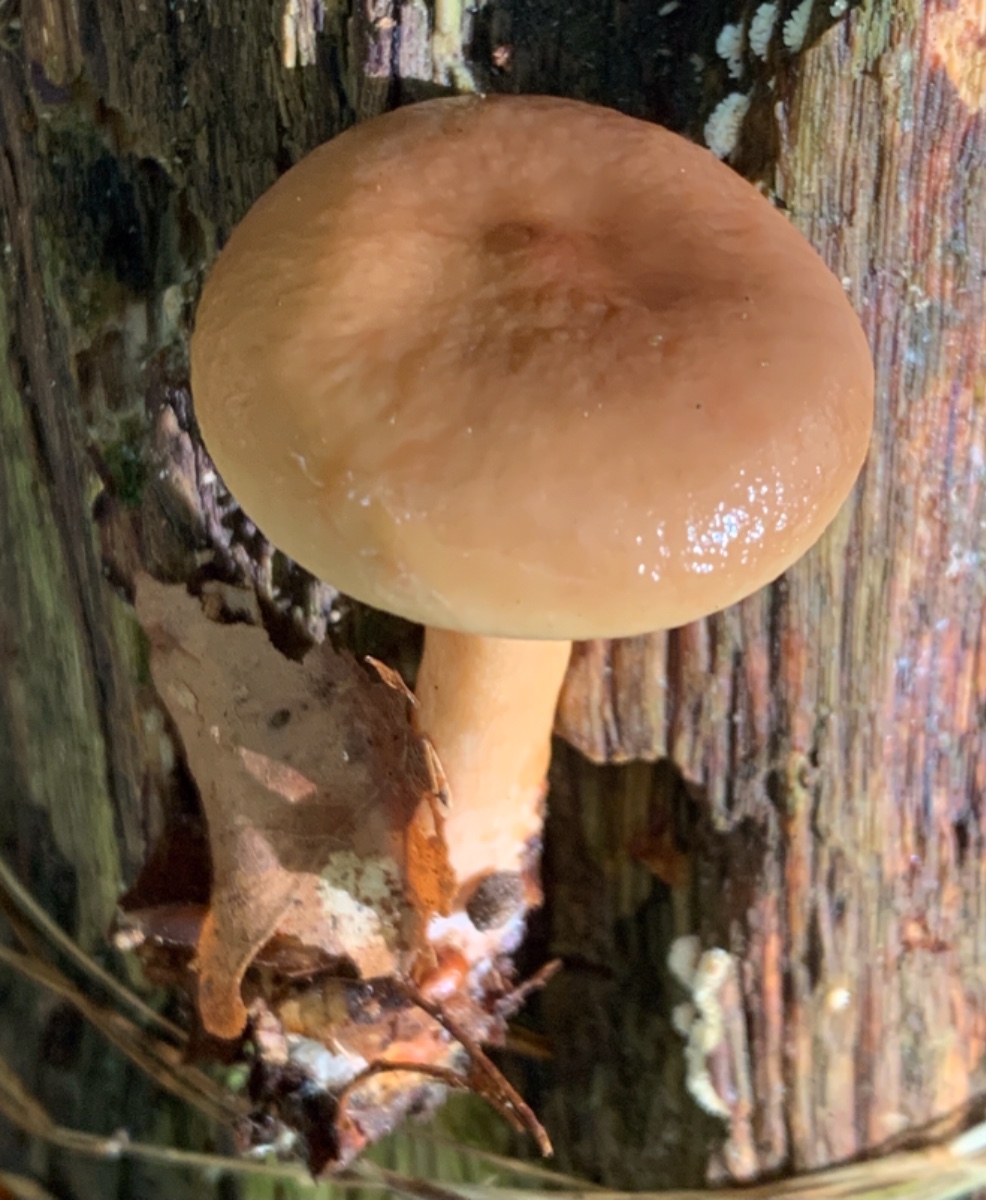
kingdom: Fungi
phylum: Basidiomycota
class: Agaricomycetes
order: Russulales
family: Russulaceae
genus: Lactarius
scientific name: Lactarius subdulcis
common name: sødlig mælkehat
